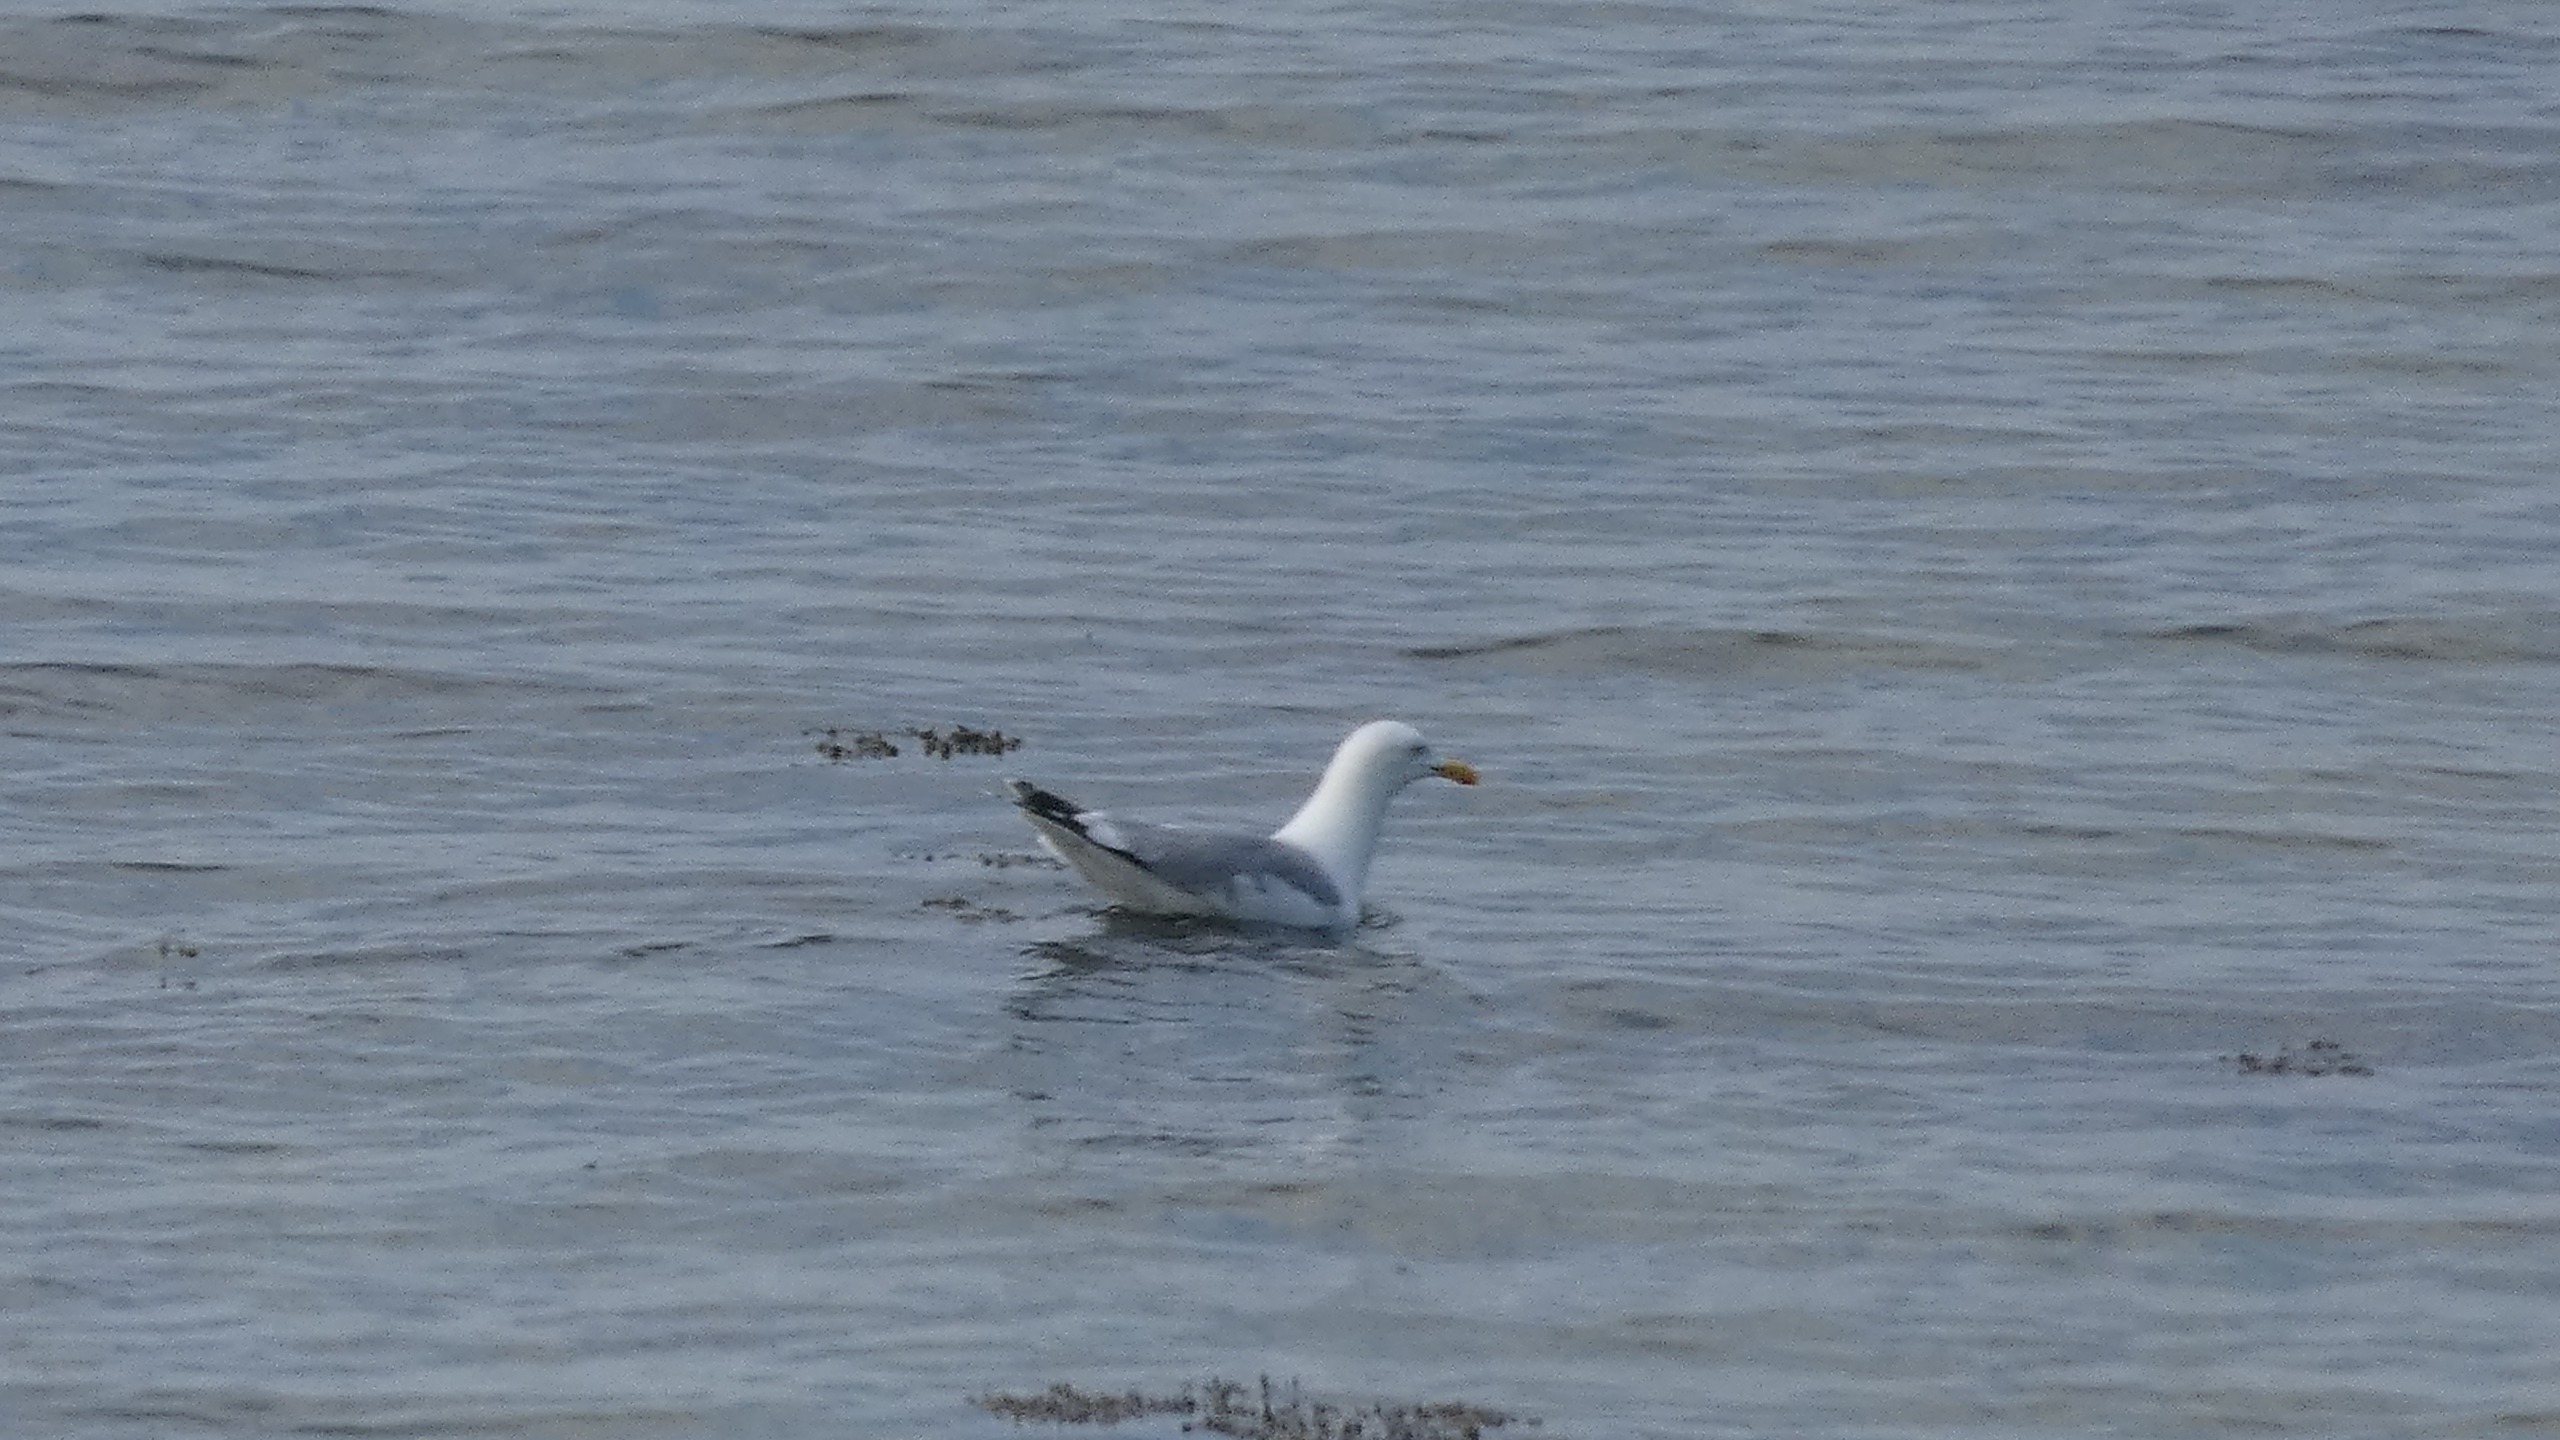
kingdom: Animalia
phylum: Chordata
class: Aves
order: Charadriiformes
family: Laridae
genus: Larus
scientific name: Larus argentatus
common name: Sølvmåge
